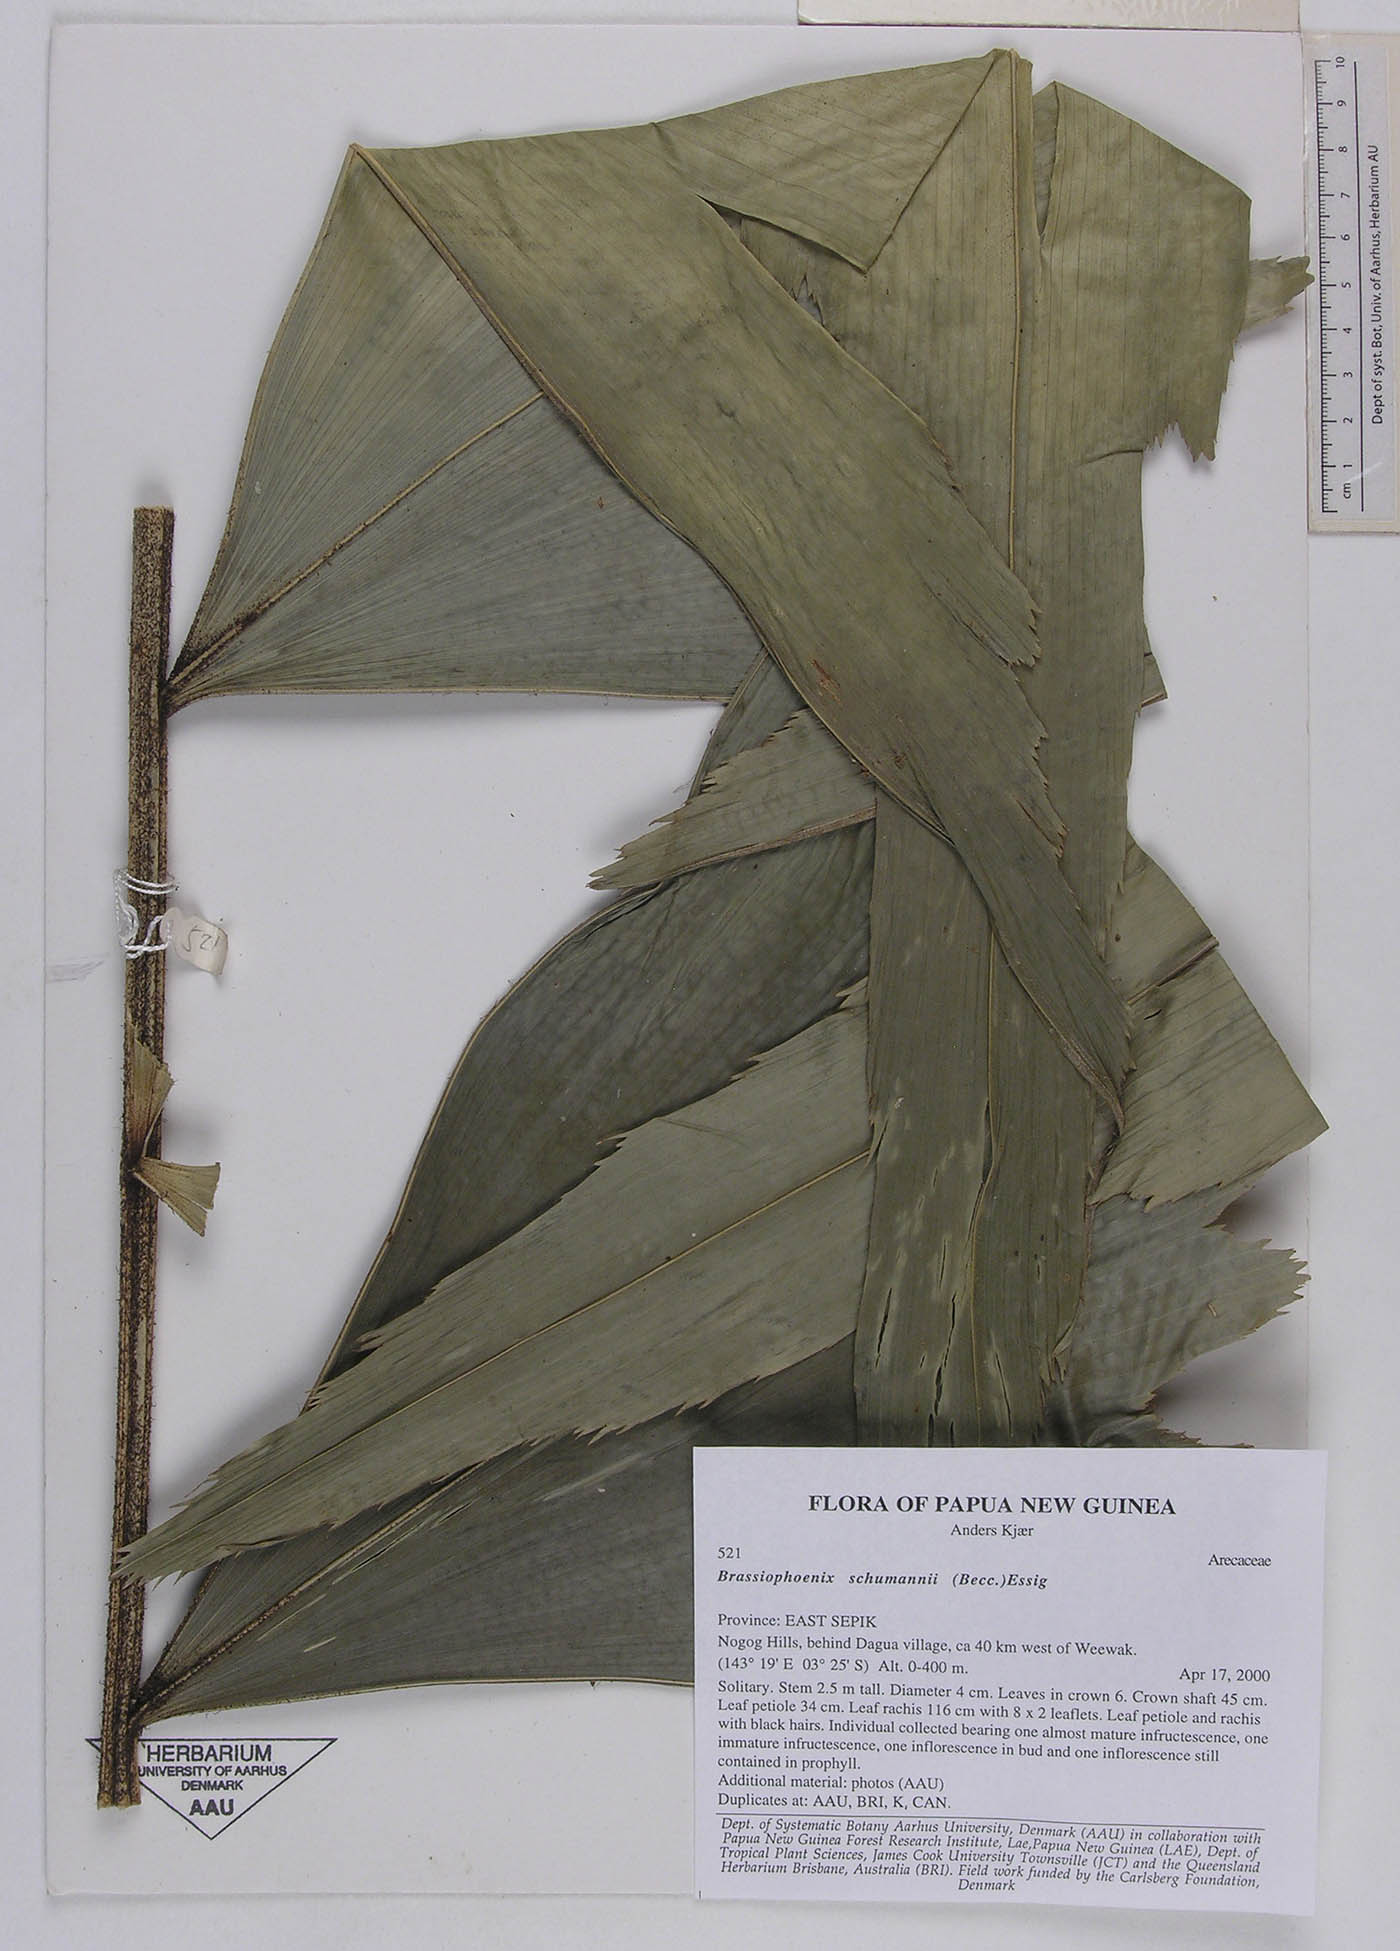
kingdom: Plantae
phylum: Tracheophyta
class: Liliopsida
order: Arecales
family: Arecaceae
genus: Brassiophoenix
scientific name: Brassiophoenix schumannii
